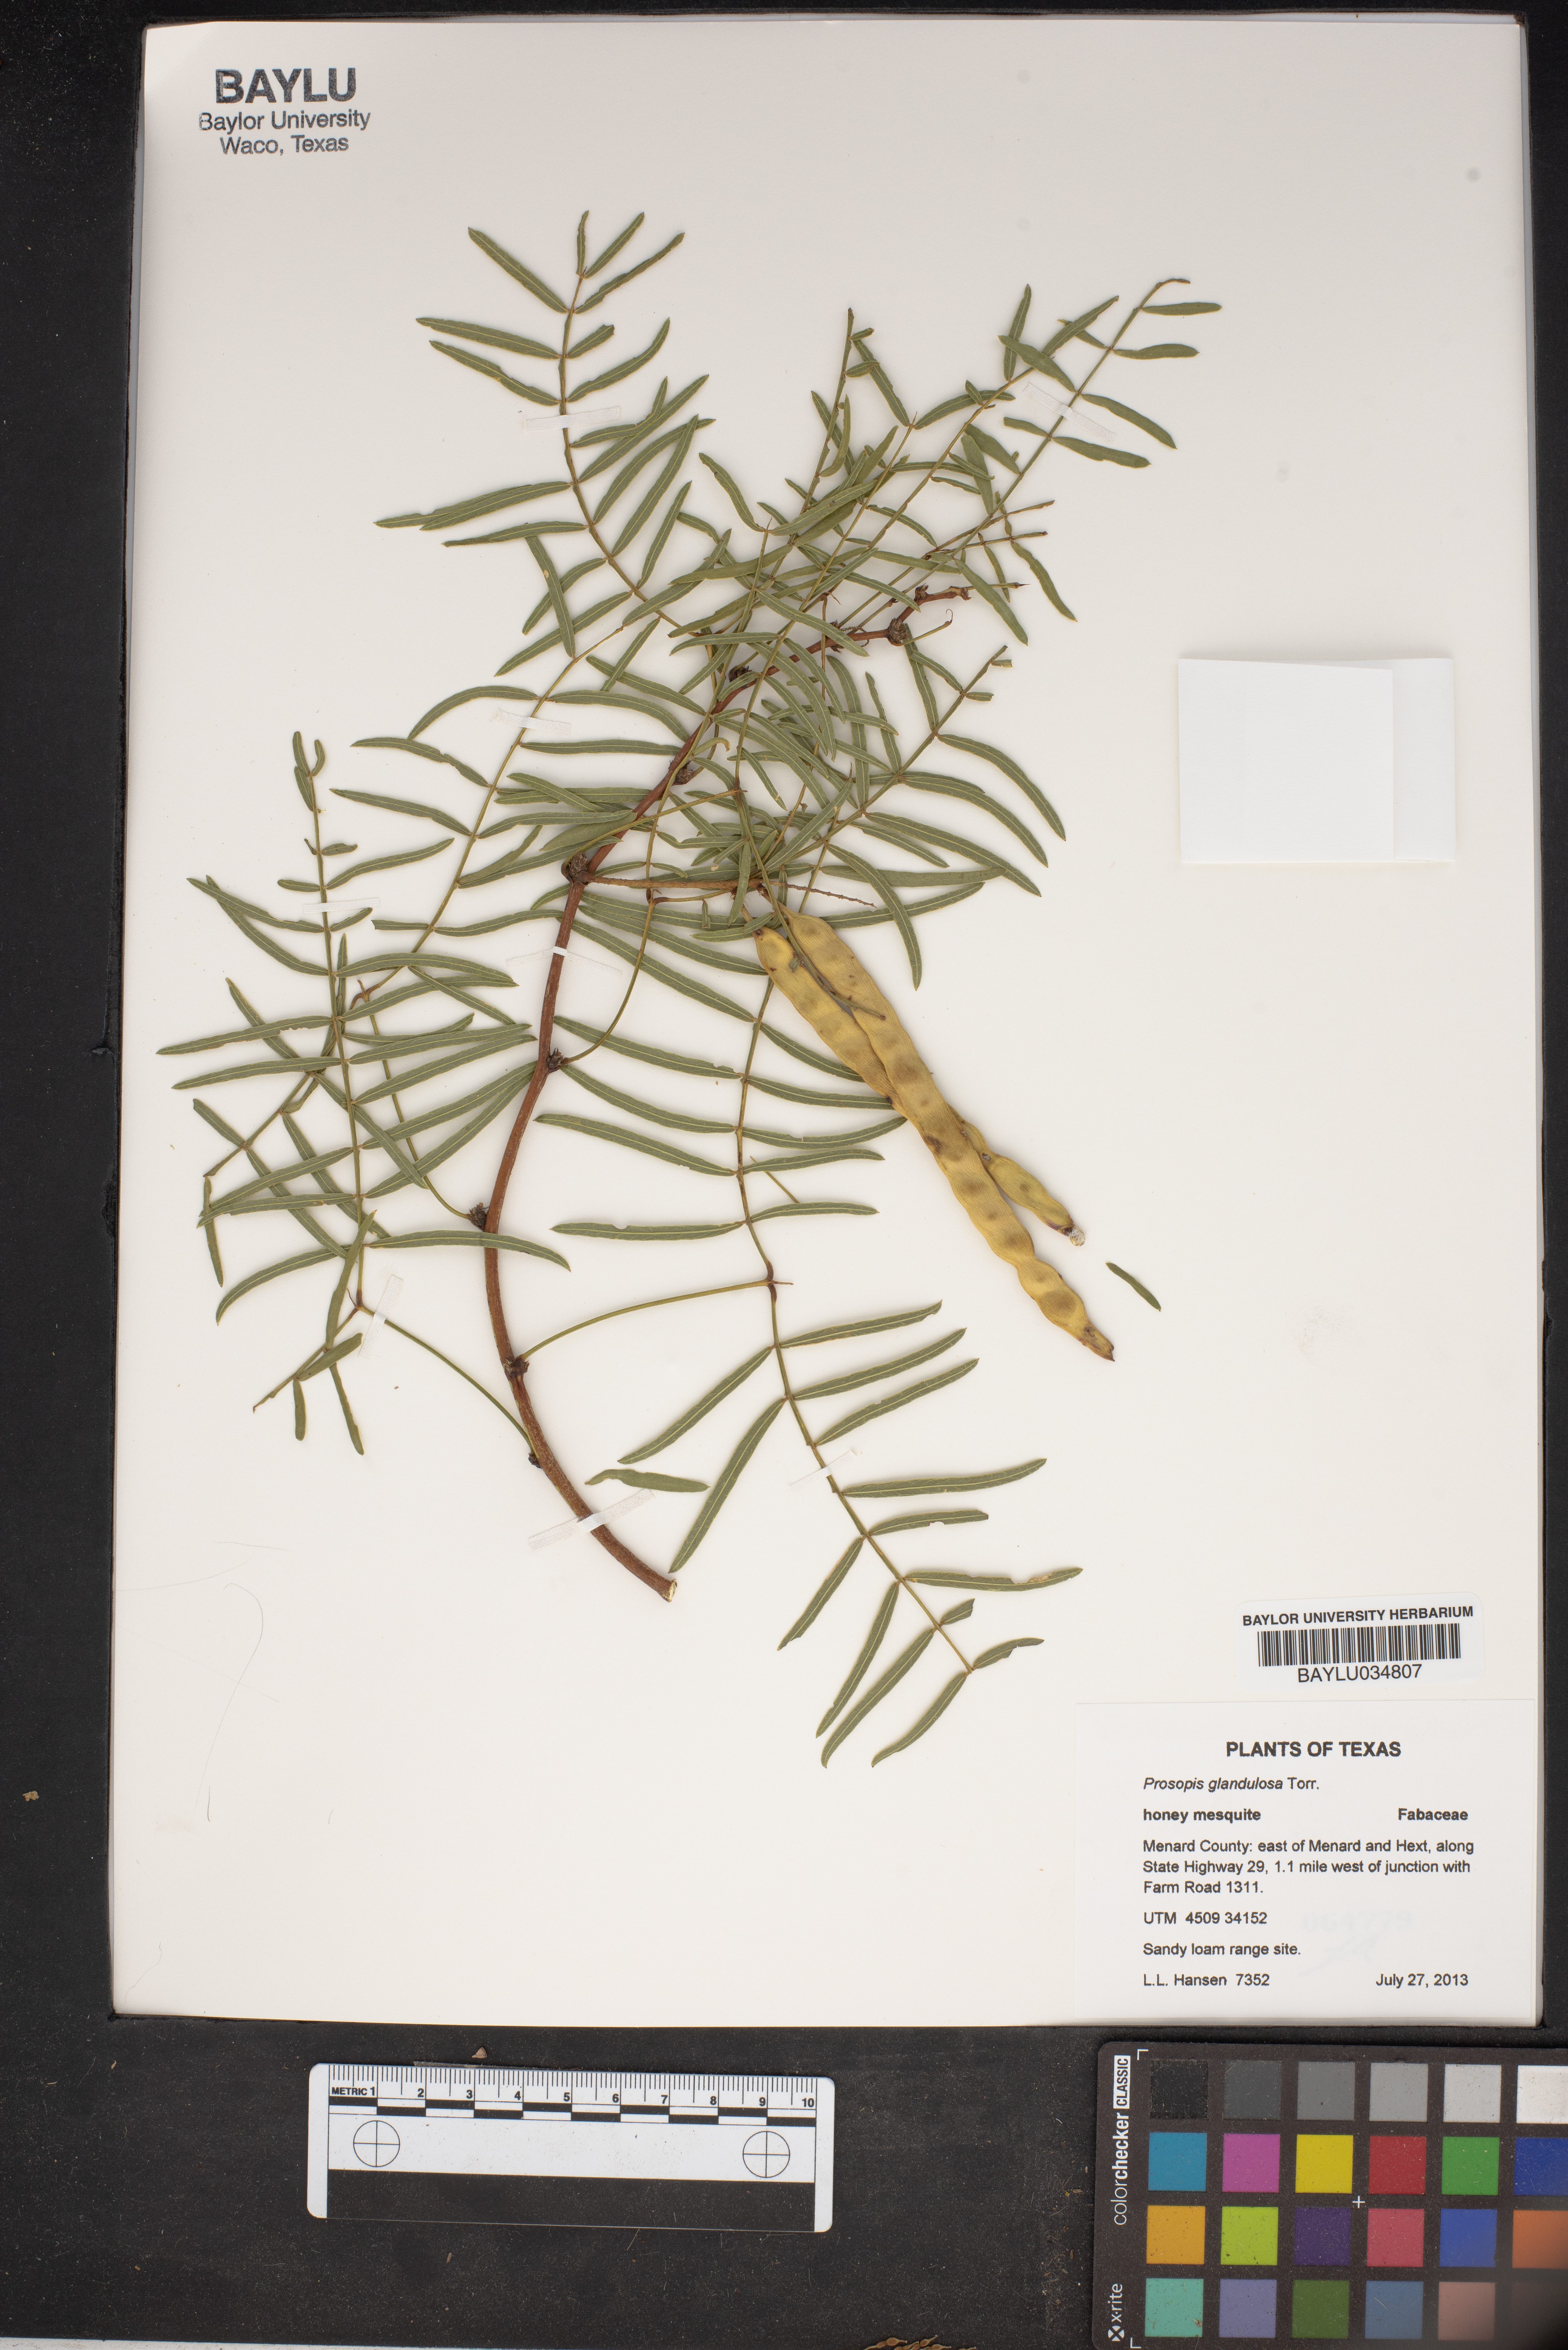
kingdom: Plantae
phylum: Tracheophyta
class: Magnoliopsida
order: Fabales
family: Fabaceae
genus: Prosopis
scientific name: Prosopis glandulosa
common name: Honey mesquite
